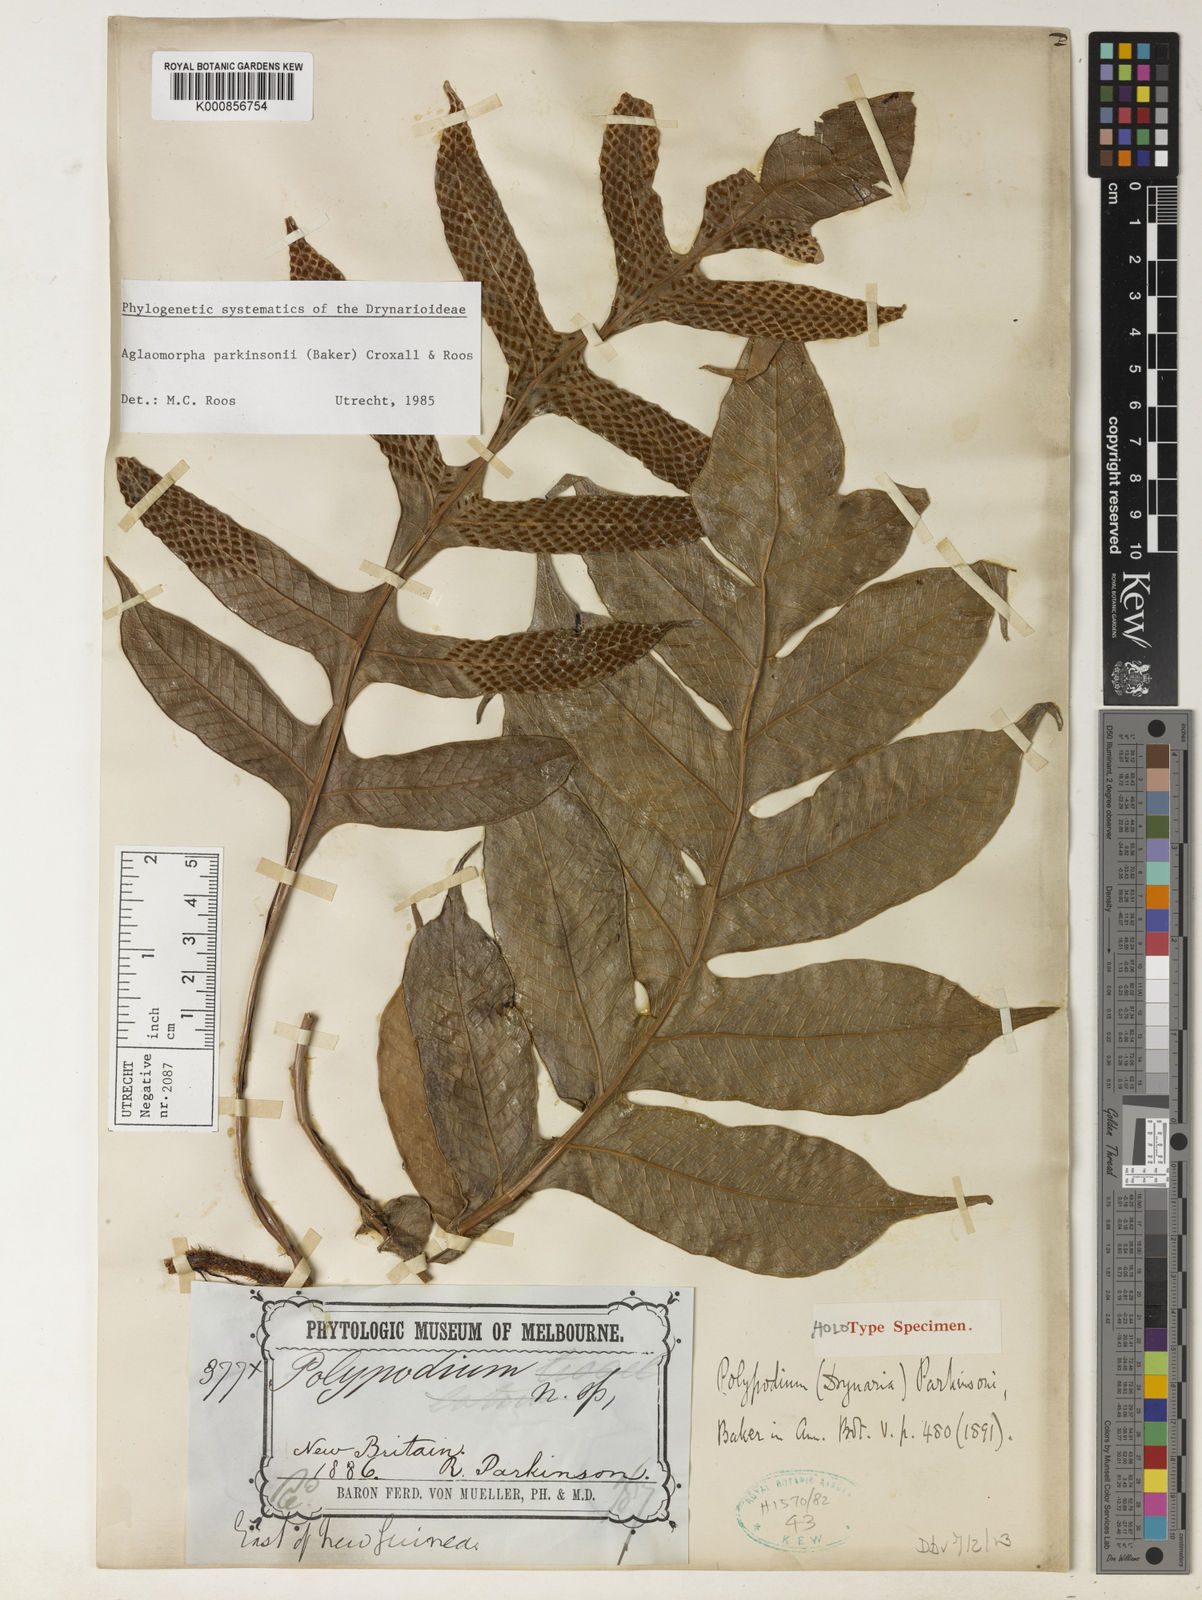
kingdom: Plantae
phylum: Tracheophyta
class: Polypodiopsida
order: Polypodiales
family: Polypodiaceae
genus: Drynaria
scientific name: Drynaria parkinsonii
